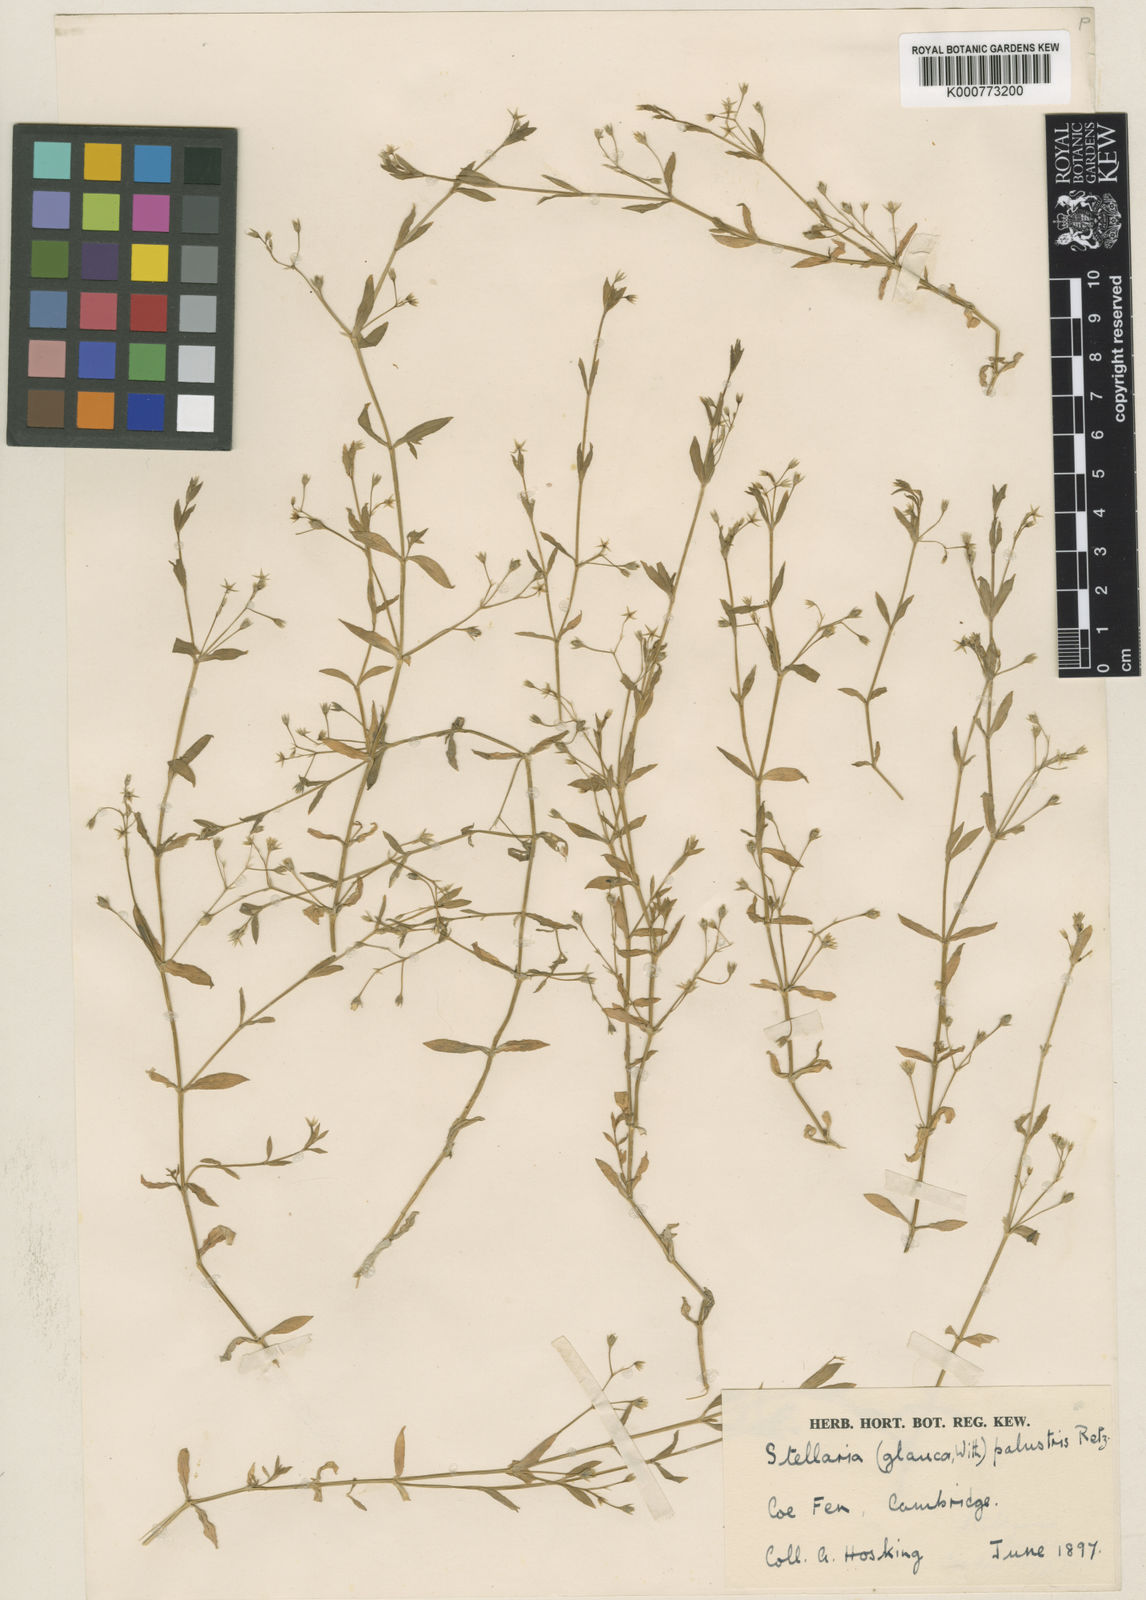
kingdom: Plantae
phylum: Tracheophyta
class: Magnoliopsida
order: Caryophyllales
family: Caryophyllaceae
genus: Stellaria
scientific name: Stellaria
